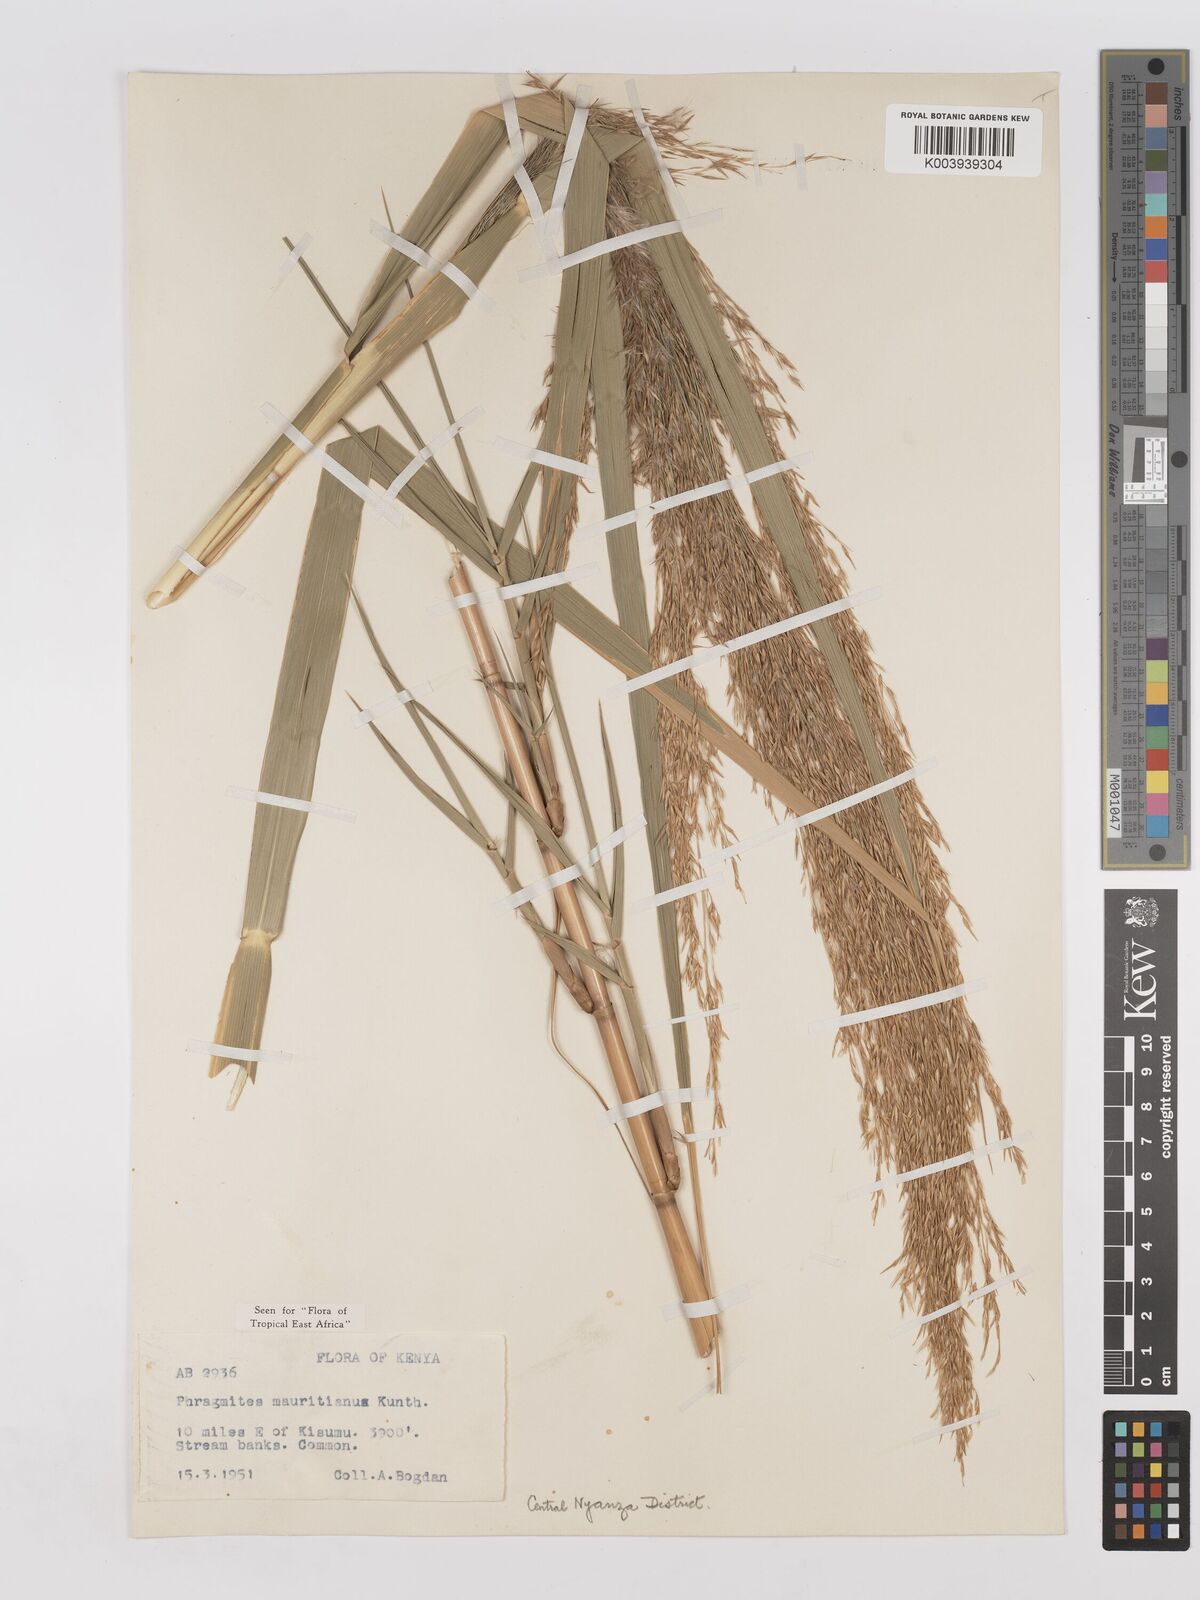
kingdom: Plantae
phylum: Tracheophyta
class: Liliopsida
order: Poales
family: Poaceae
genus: Phragmites
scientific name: Phragmites mauritianus
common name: Reed grass
